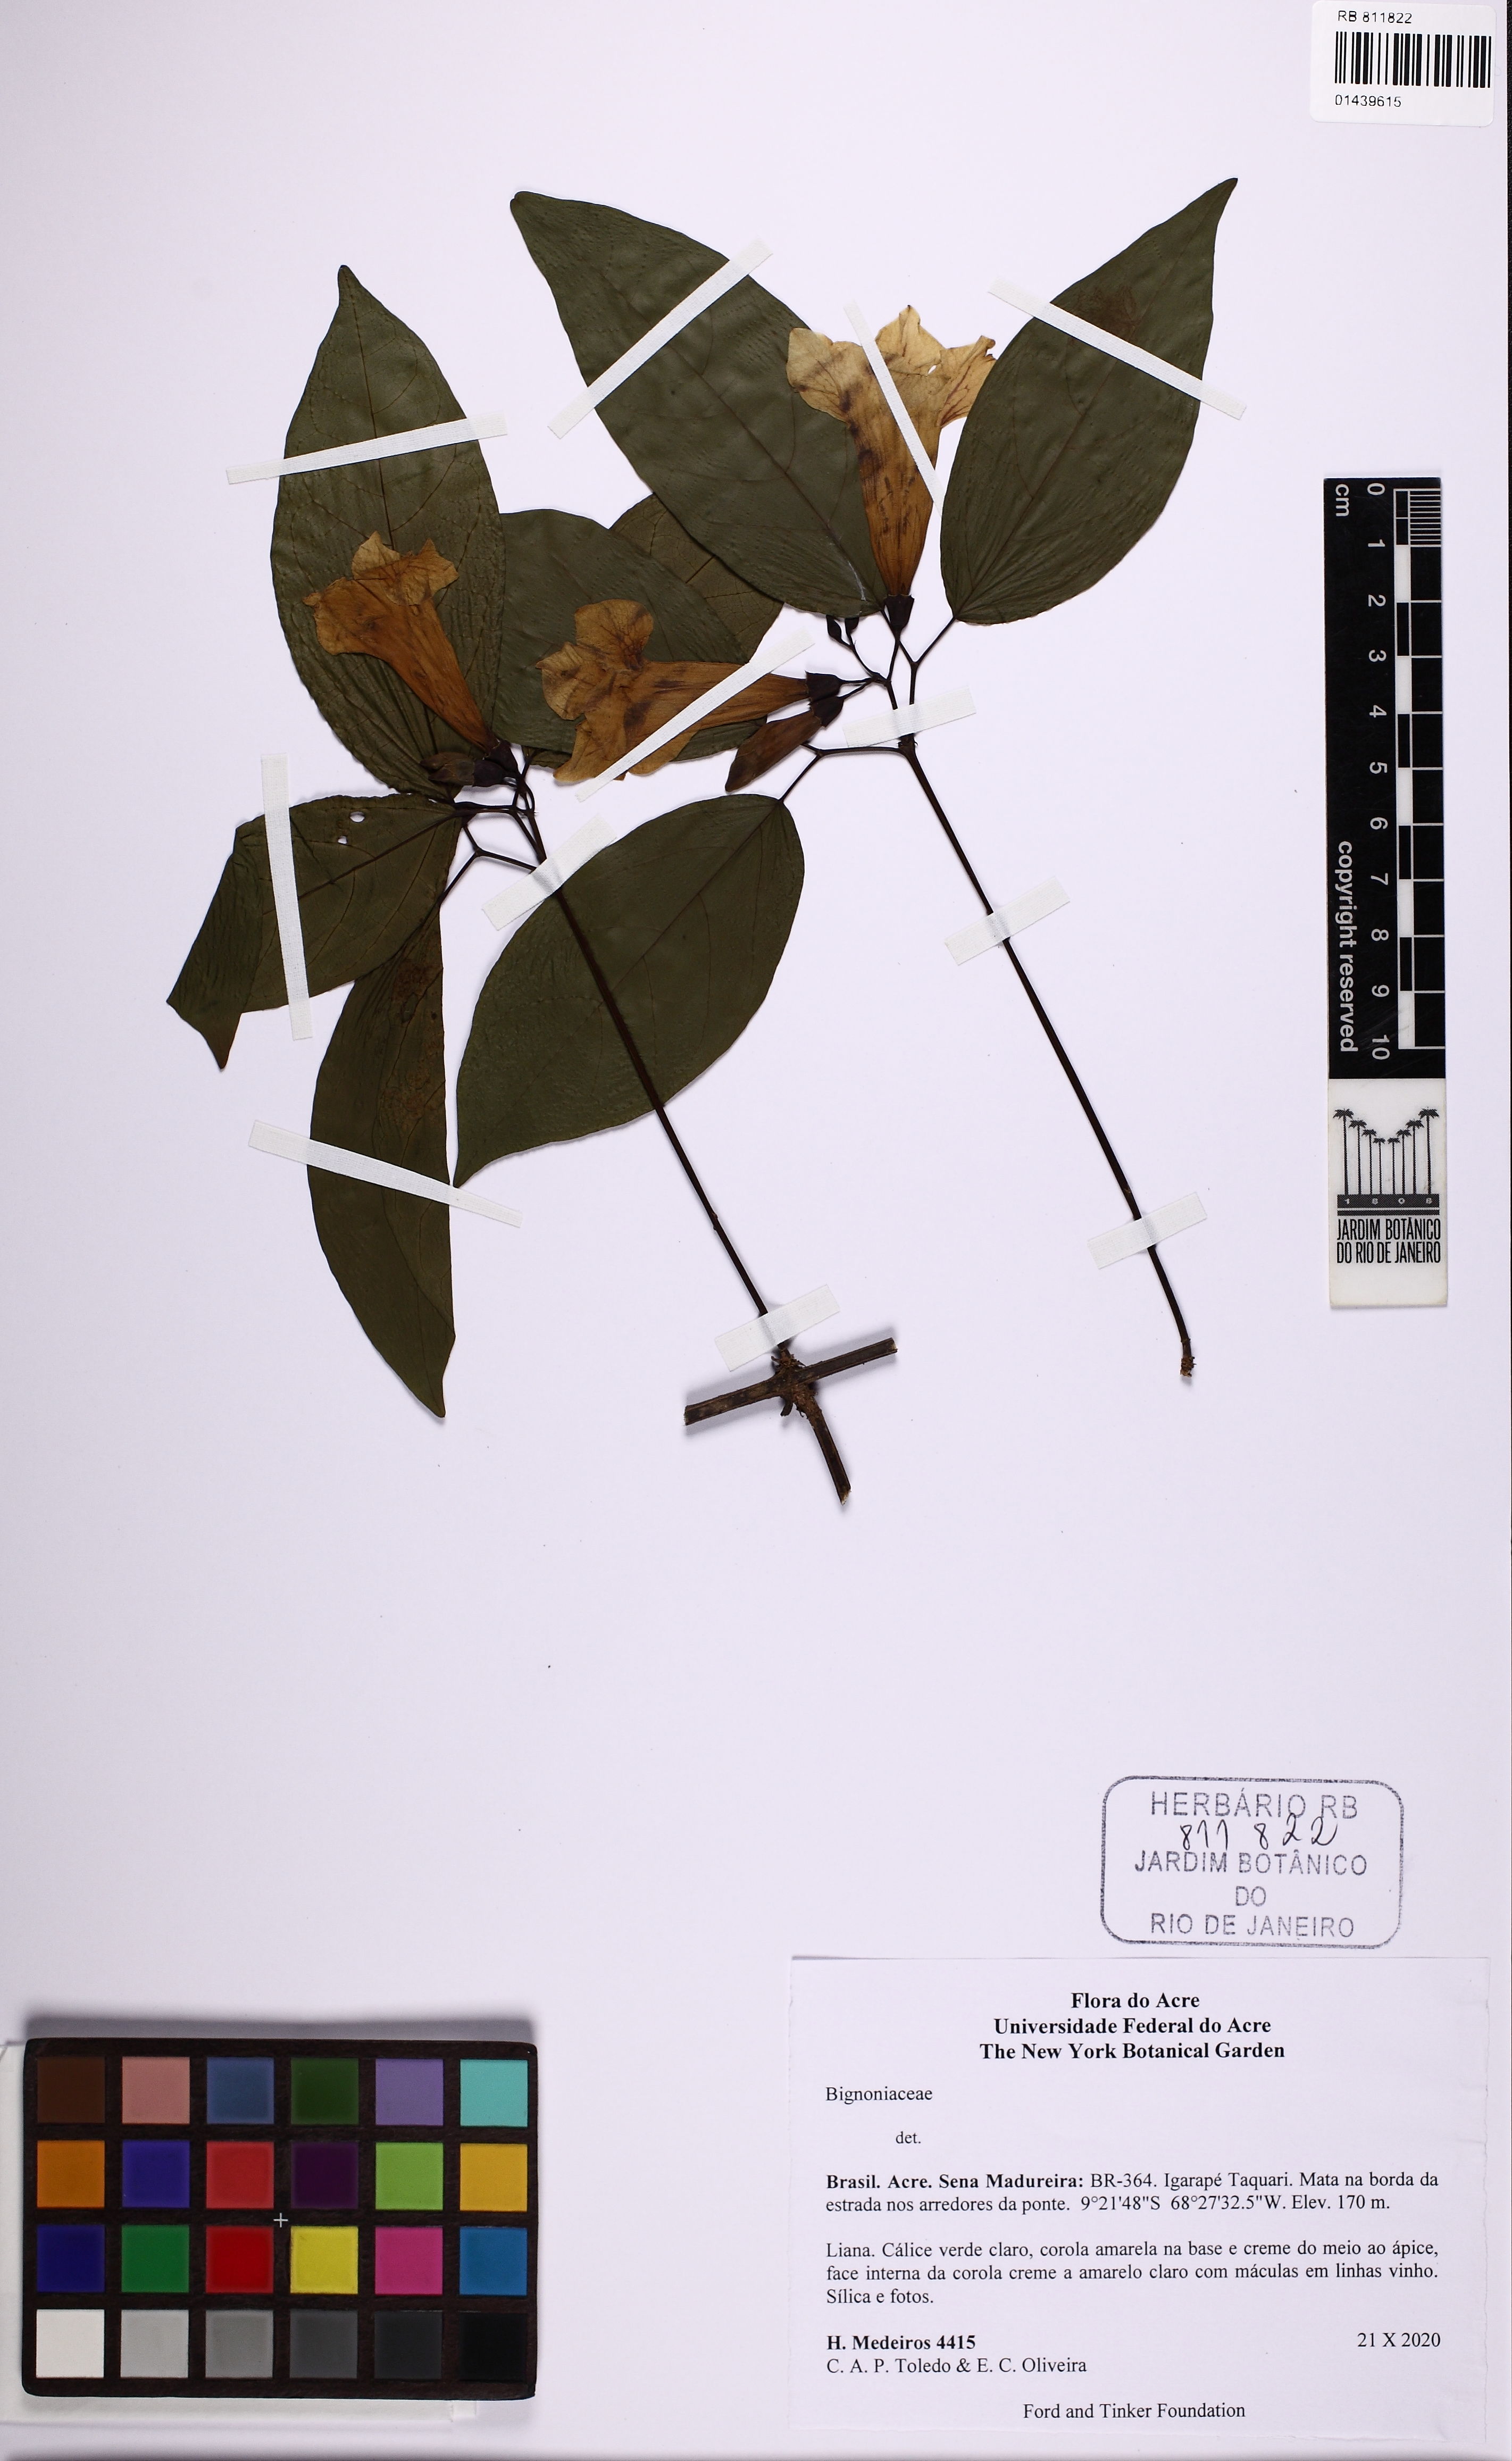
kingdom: Plantae
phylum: Tracheophyta
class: Magnoliopsida
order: Lamiales
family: Bignoniaceae
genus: Bignonia
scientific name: Bignonia lilacina
